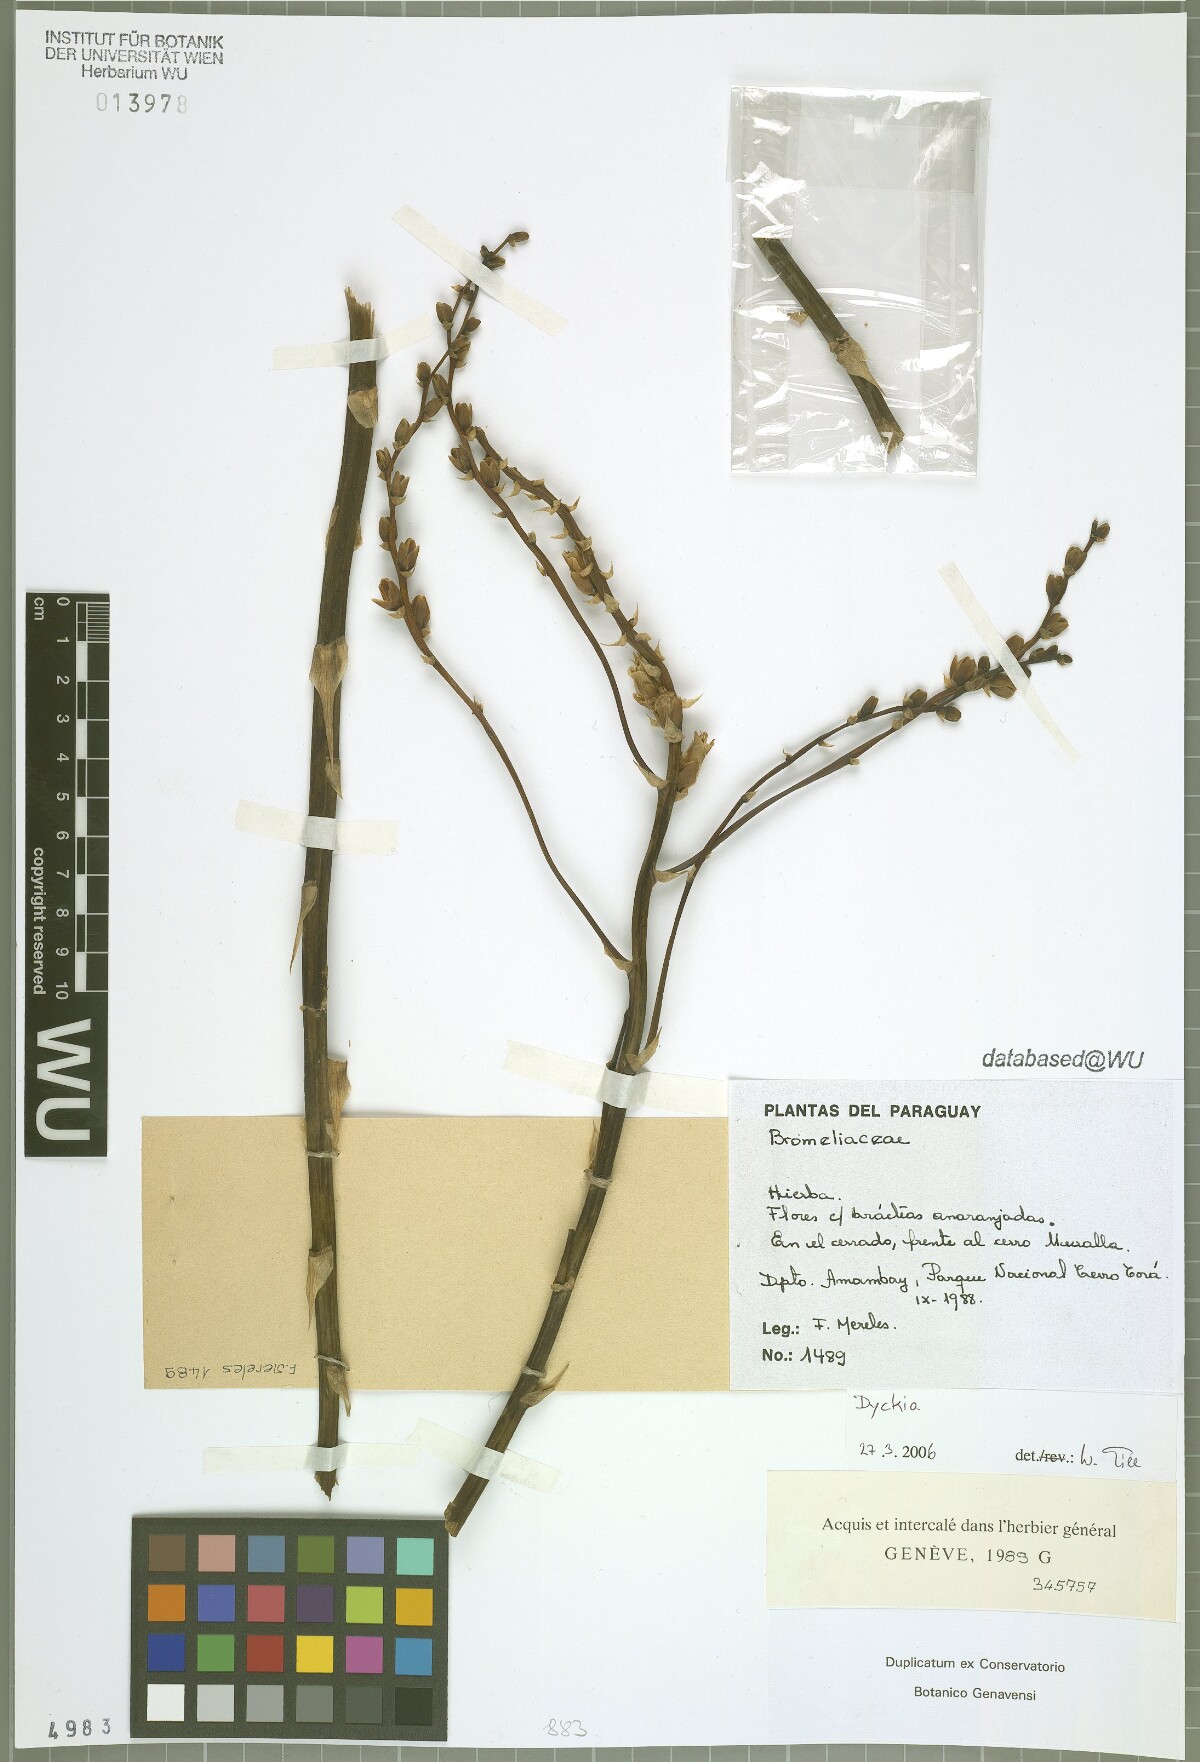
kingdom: Plantae
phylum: Tracheophyta
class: Liliopsida
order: Poales
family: Bromeliaceae
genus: Dyckia
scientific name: Dyckia
